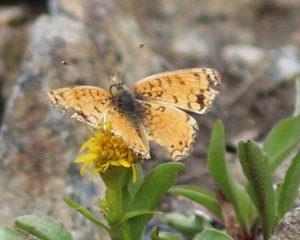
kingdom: Animalia
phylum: Arthropoda
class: Insecta
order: Lepidoptera
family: Nymphalidae
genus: Eresia
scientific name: Eresia aveyrona
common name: Mylitta Crescent
